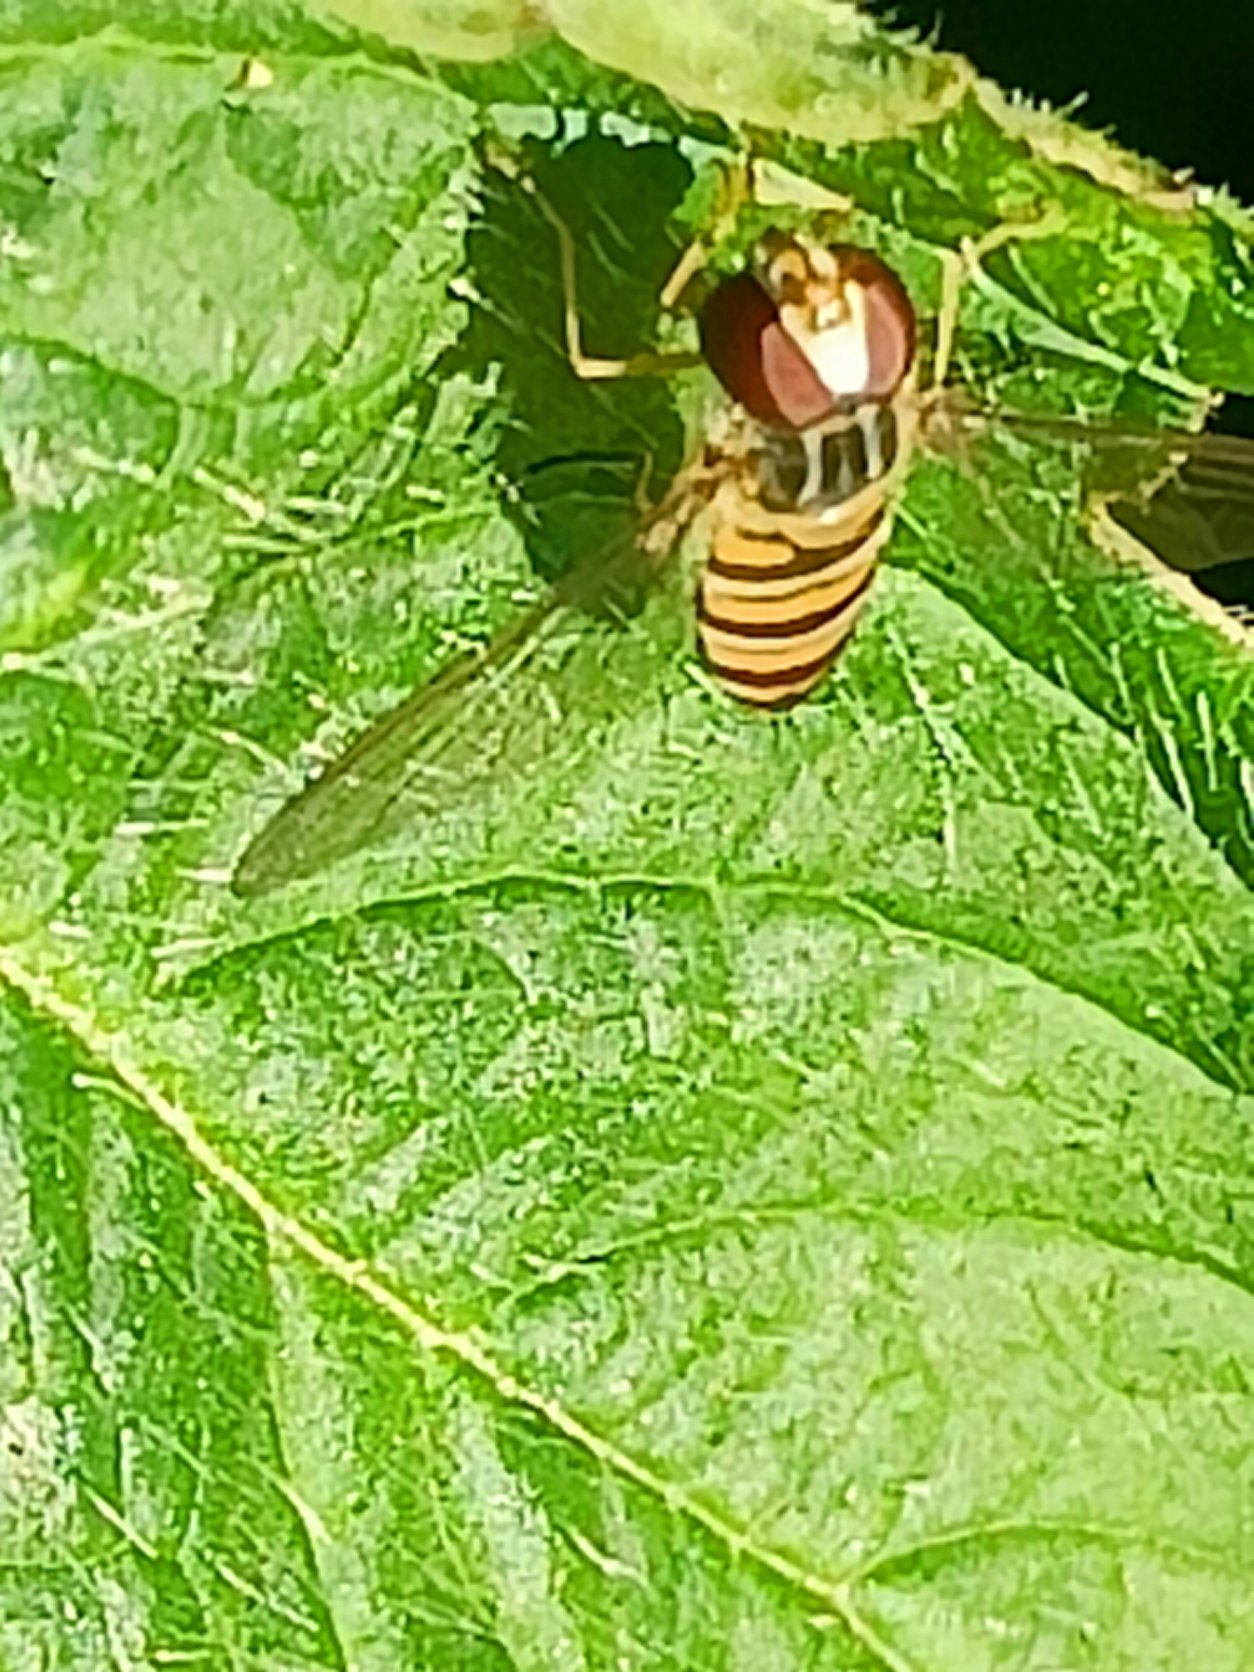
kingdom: Animalia
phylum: Arthropoda
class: Insecta
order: Diptera
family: Syrphidae
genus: Episyrphus
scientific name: Episyrphus balteatus
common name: Dobbeltbåndet svirreflue
